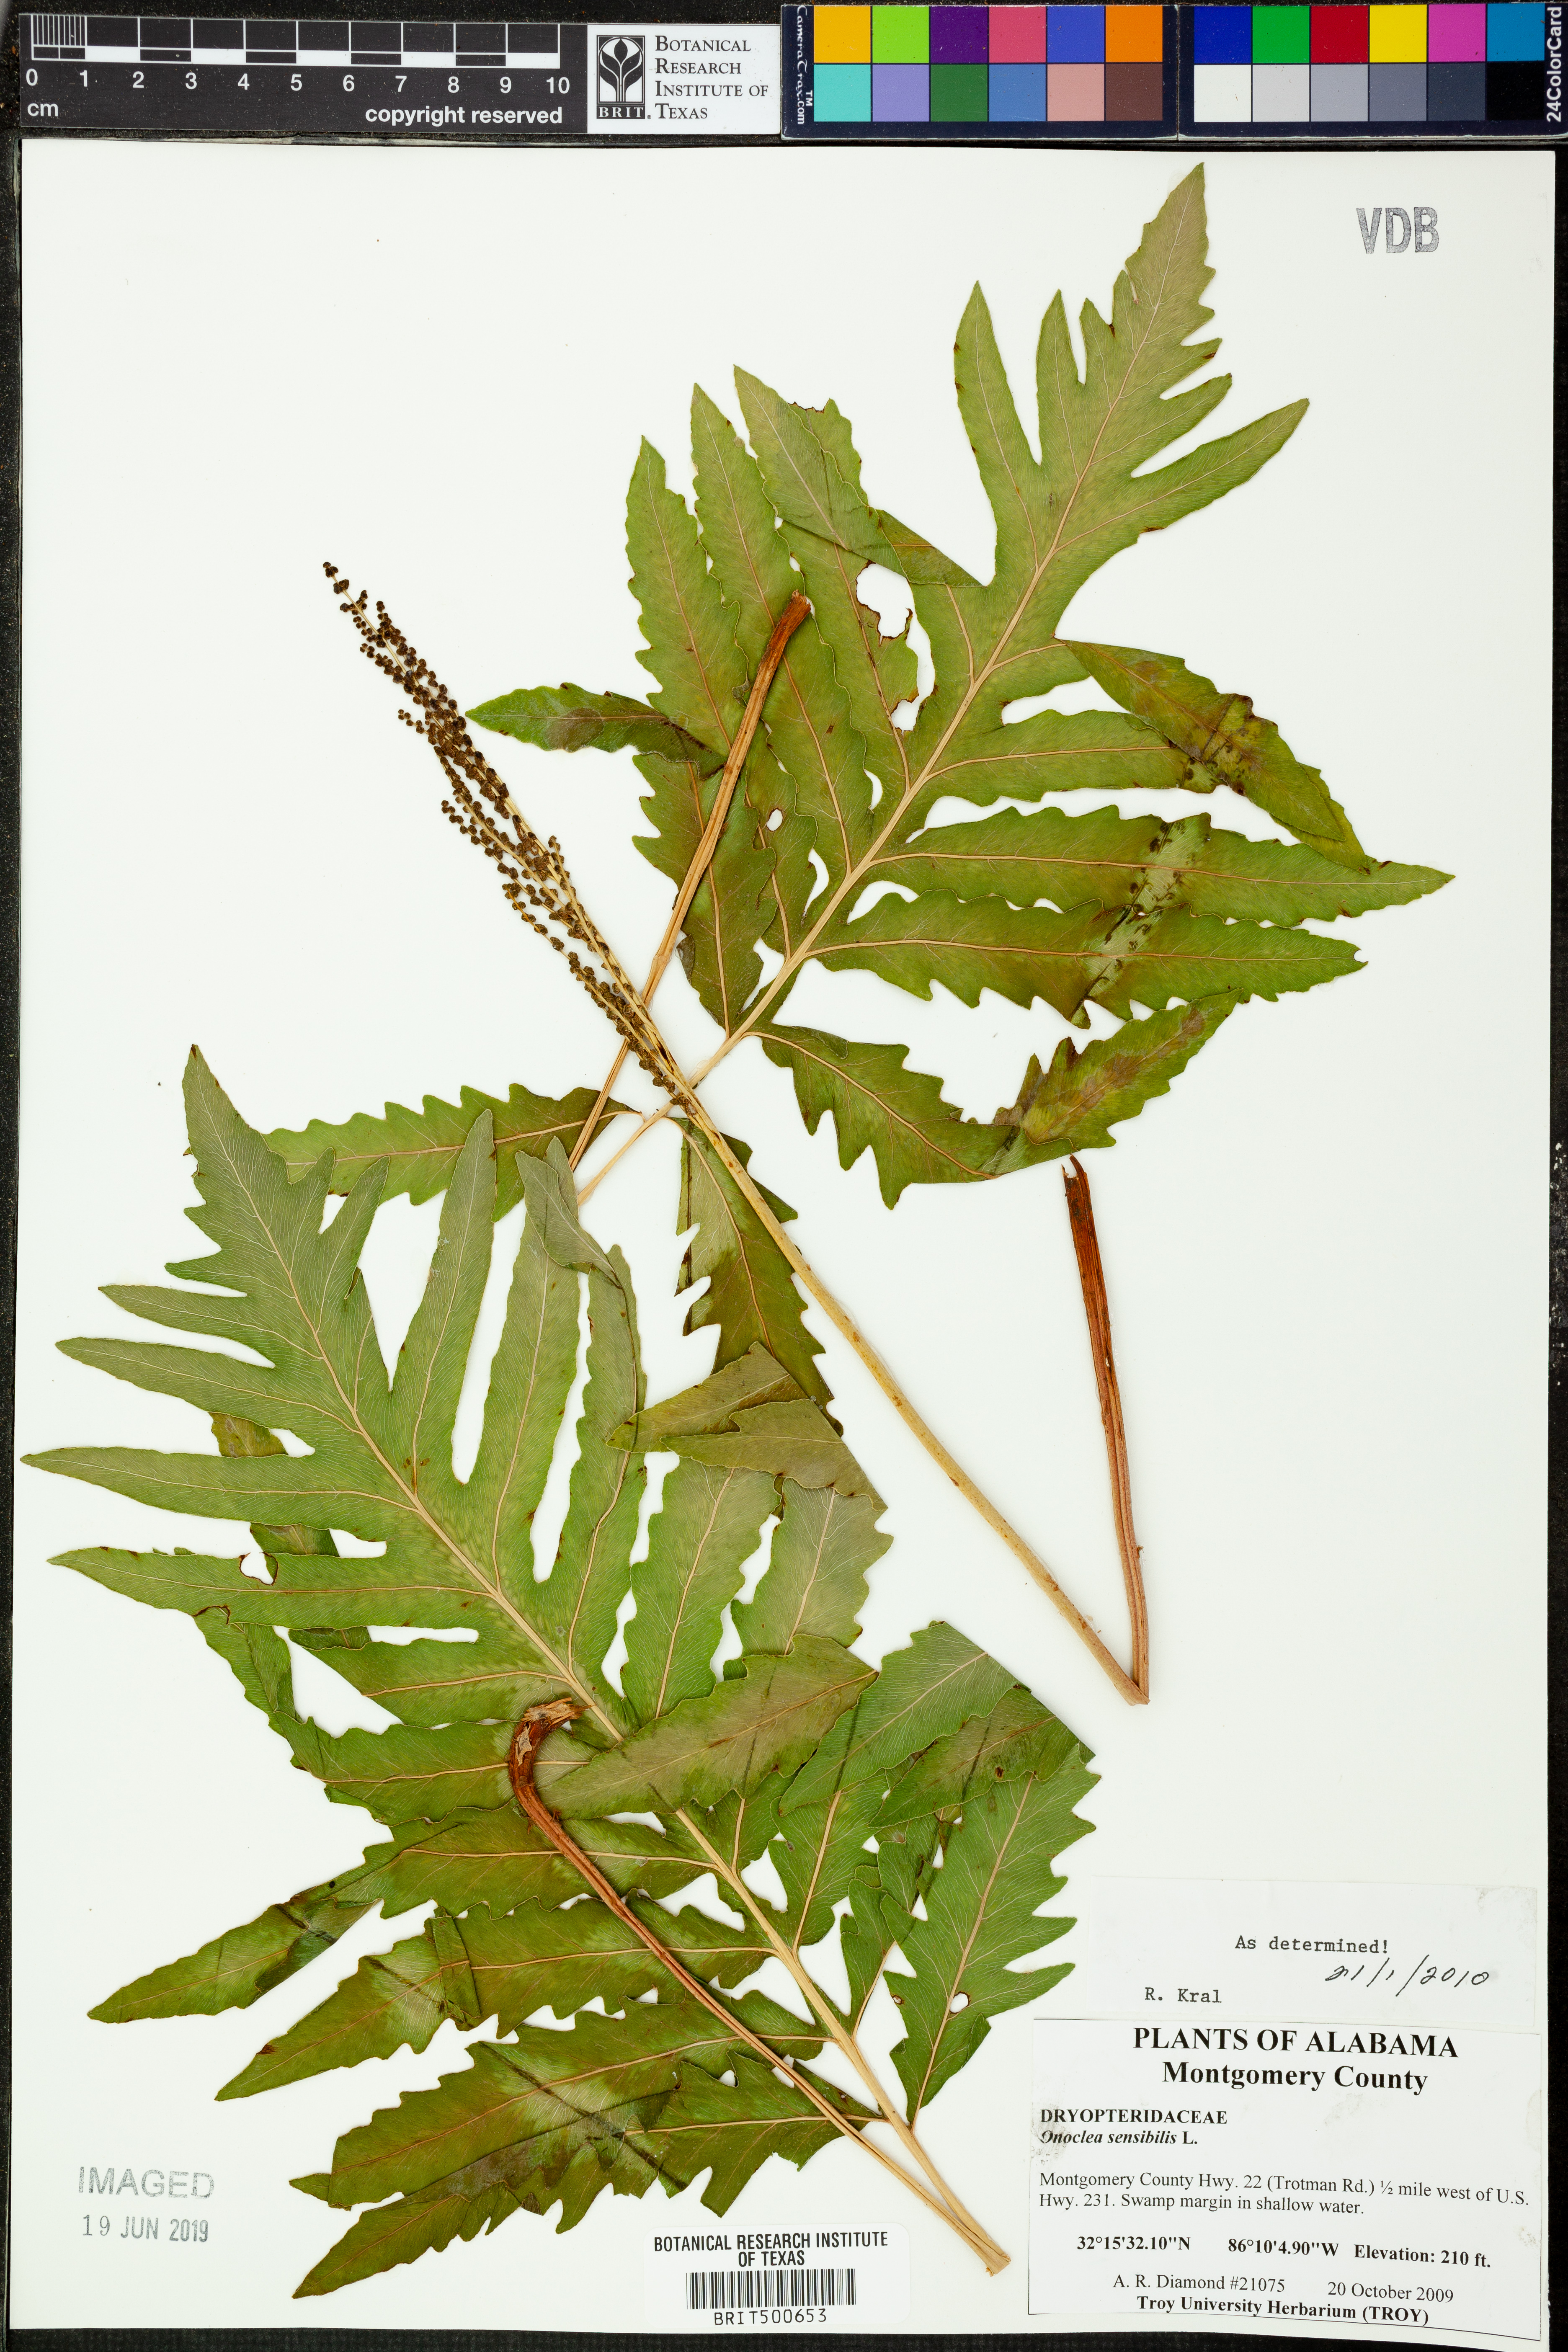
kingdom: Plantae
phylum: Tracheophyta
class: Polypodiopsida
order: Polypodiales
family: Onocleaceae
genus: Onoclea
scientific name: Onoclea sensibilis
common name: Sensitive fern
